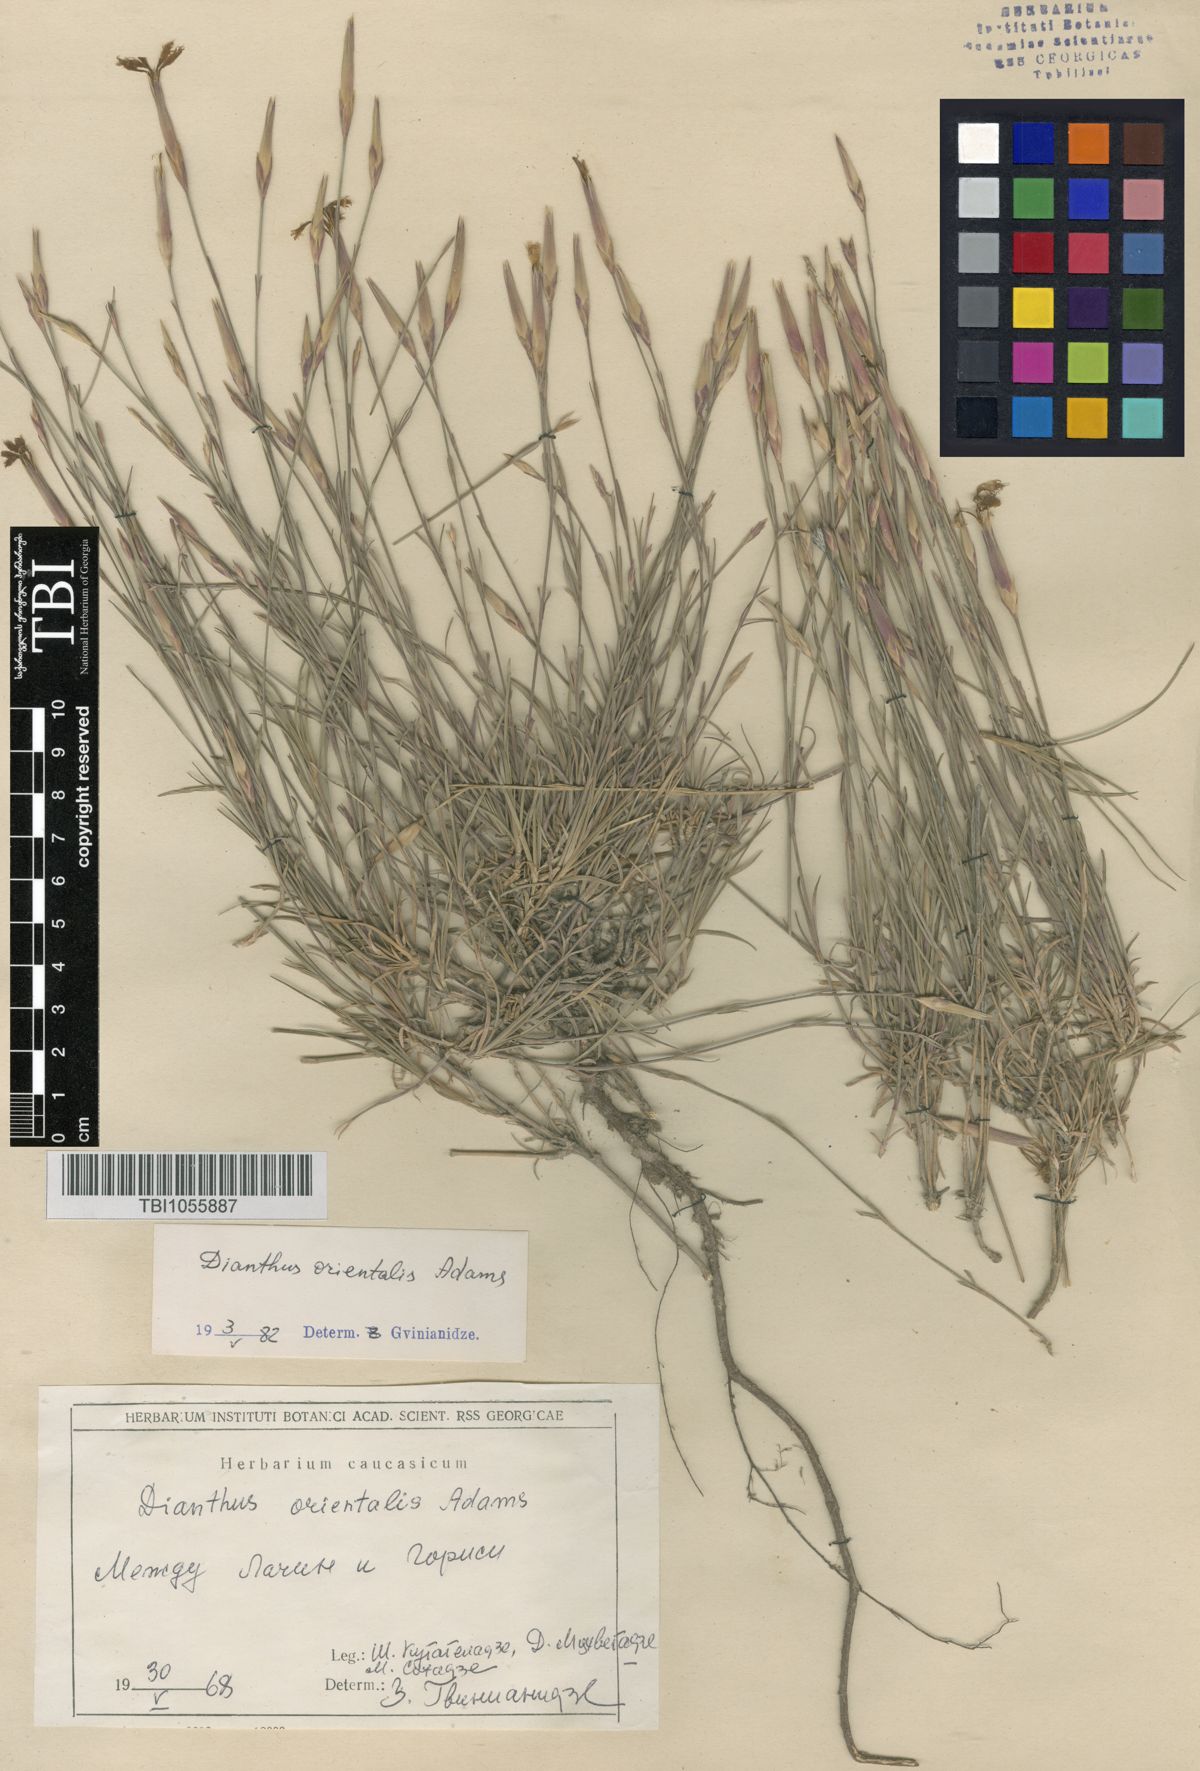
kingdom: Plantae
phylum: Tracheophyta
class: Magnoliopsida
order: Caryophyllales
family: Caryophyllaceae
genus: Dianthus
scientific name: Dianthus orientalis
